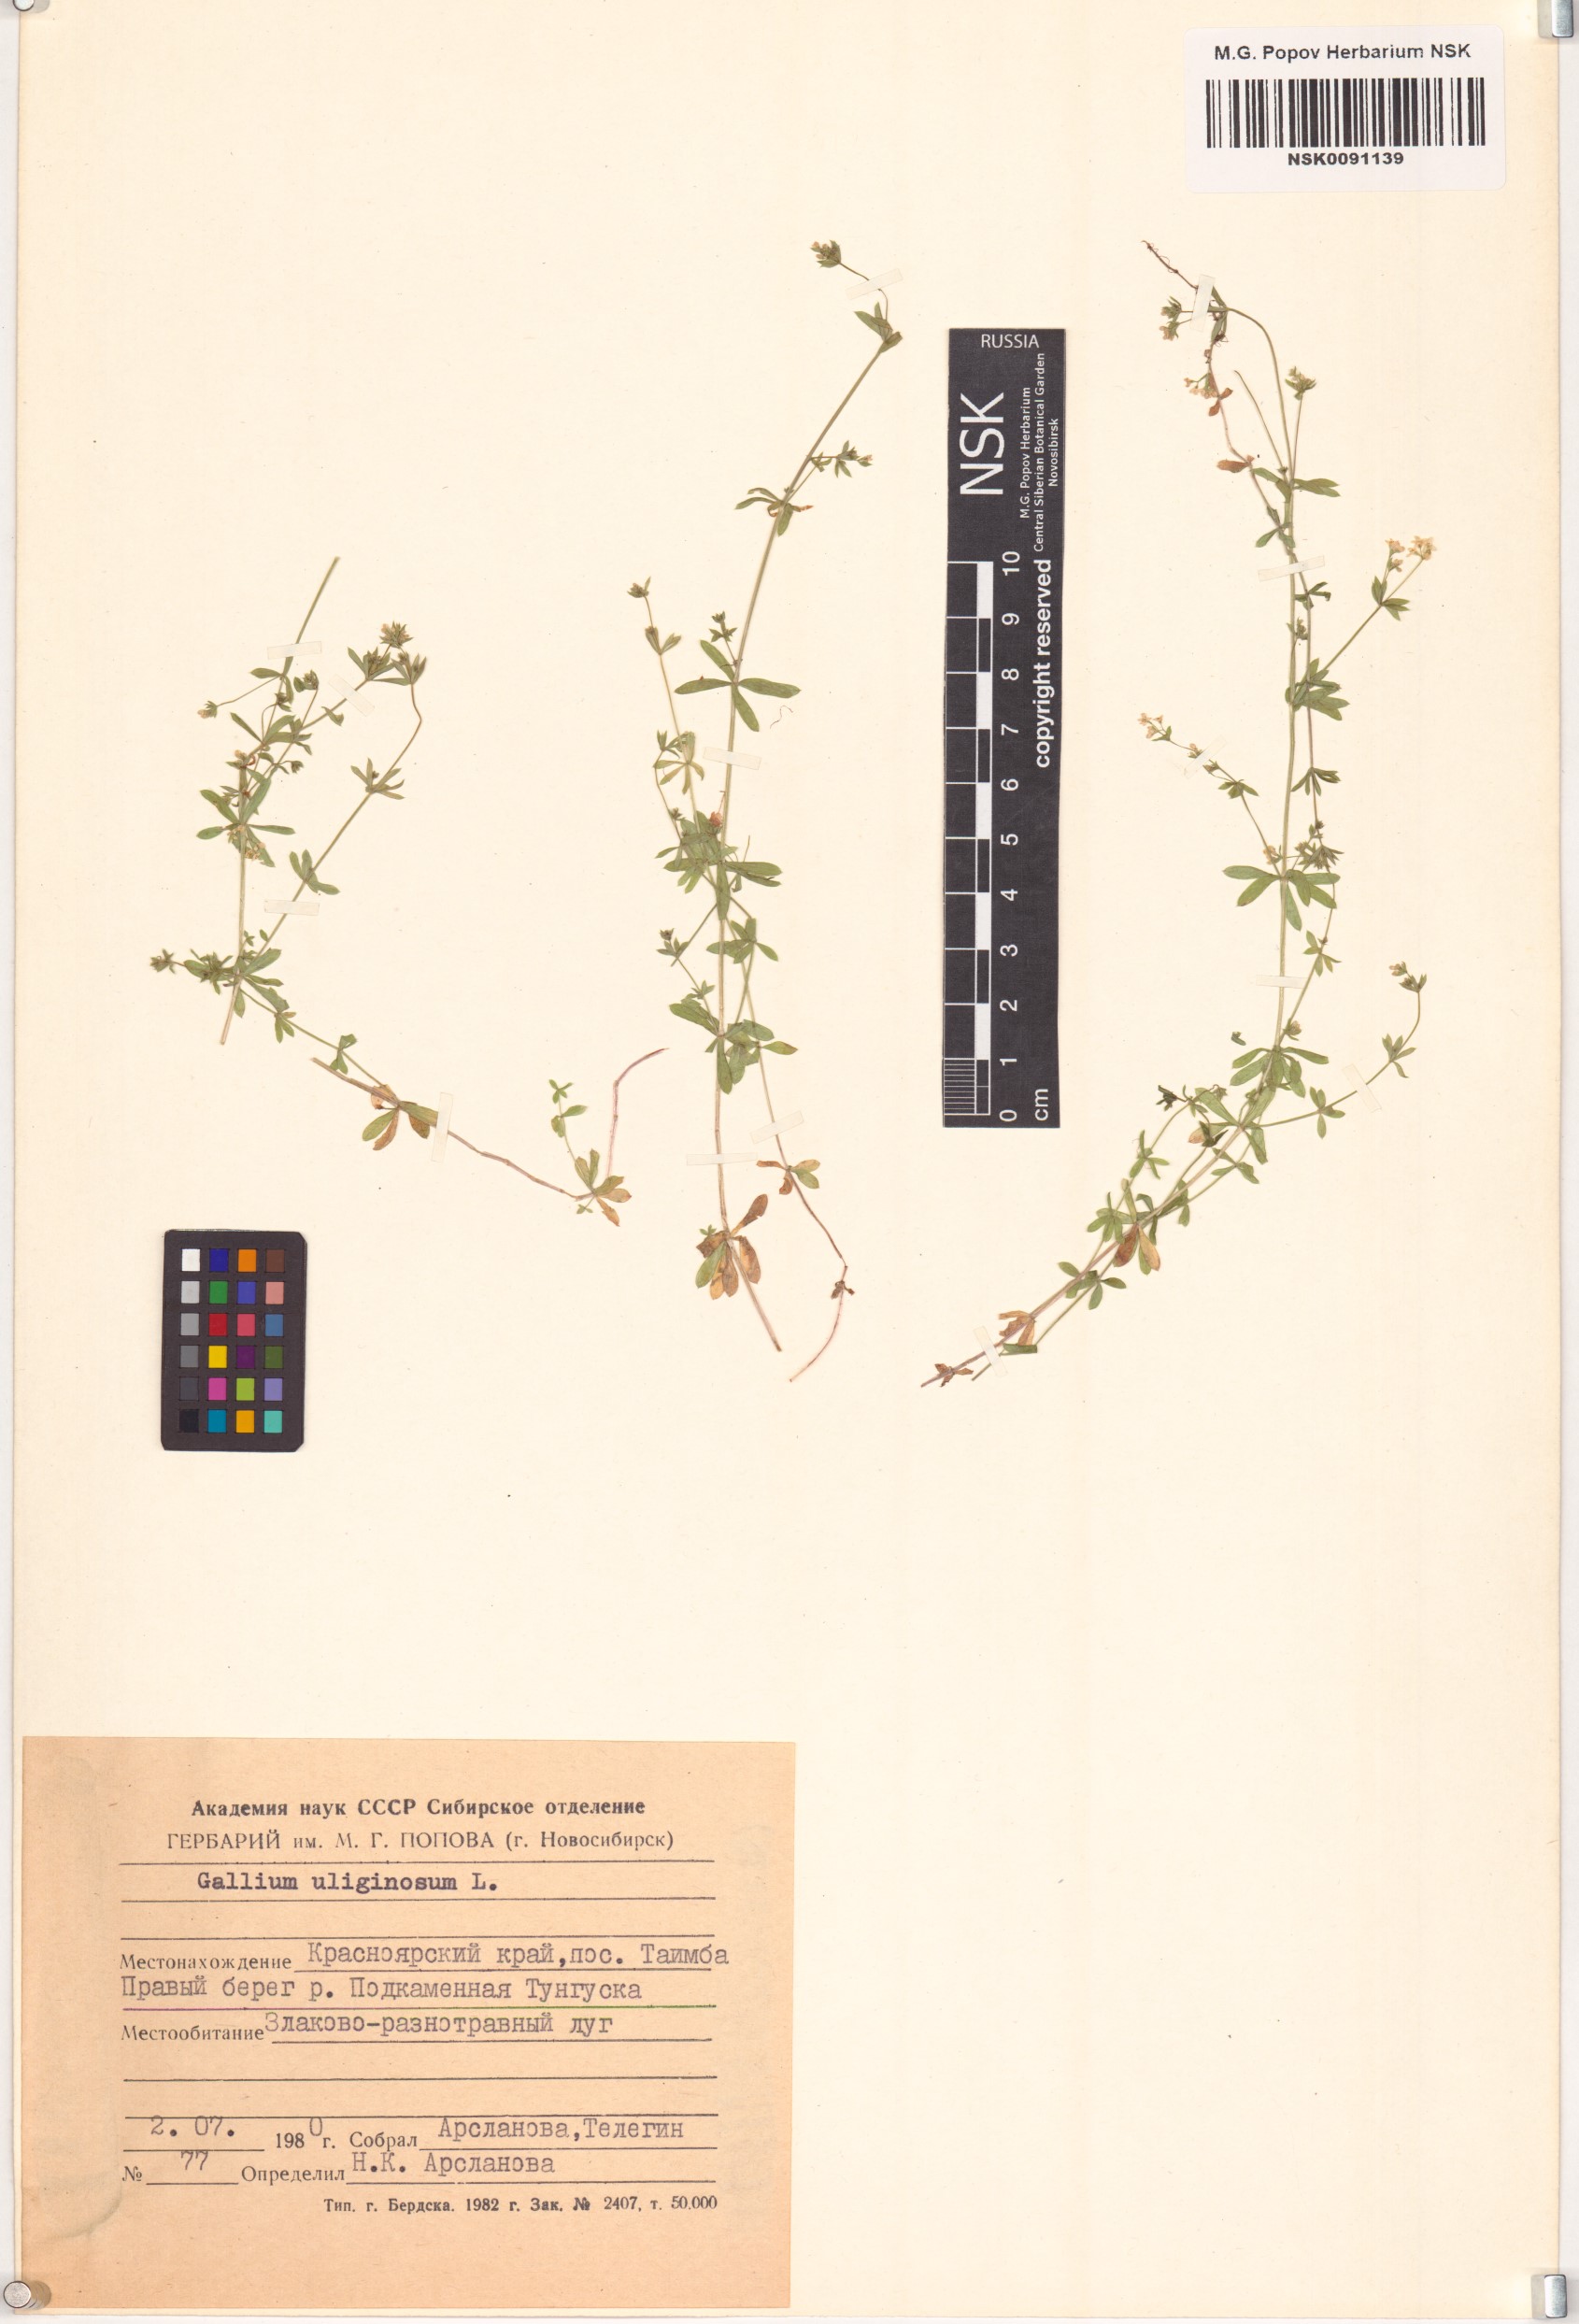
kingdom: Plantae
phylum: Tracheophyta
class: Magnoliopsida
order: Gentianales
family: Rubiaceae
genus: Galium
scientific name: Galium uliginosum
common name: Fen bedstraw
